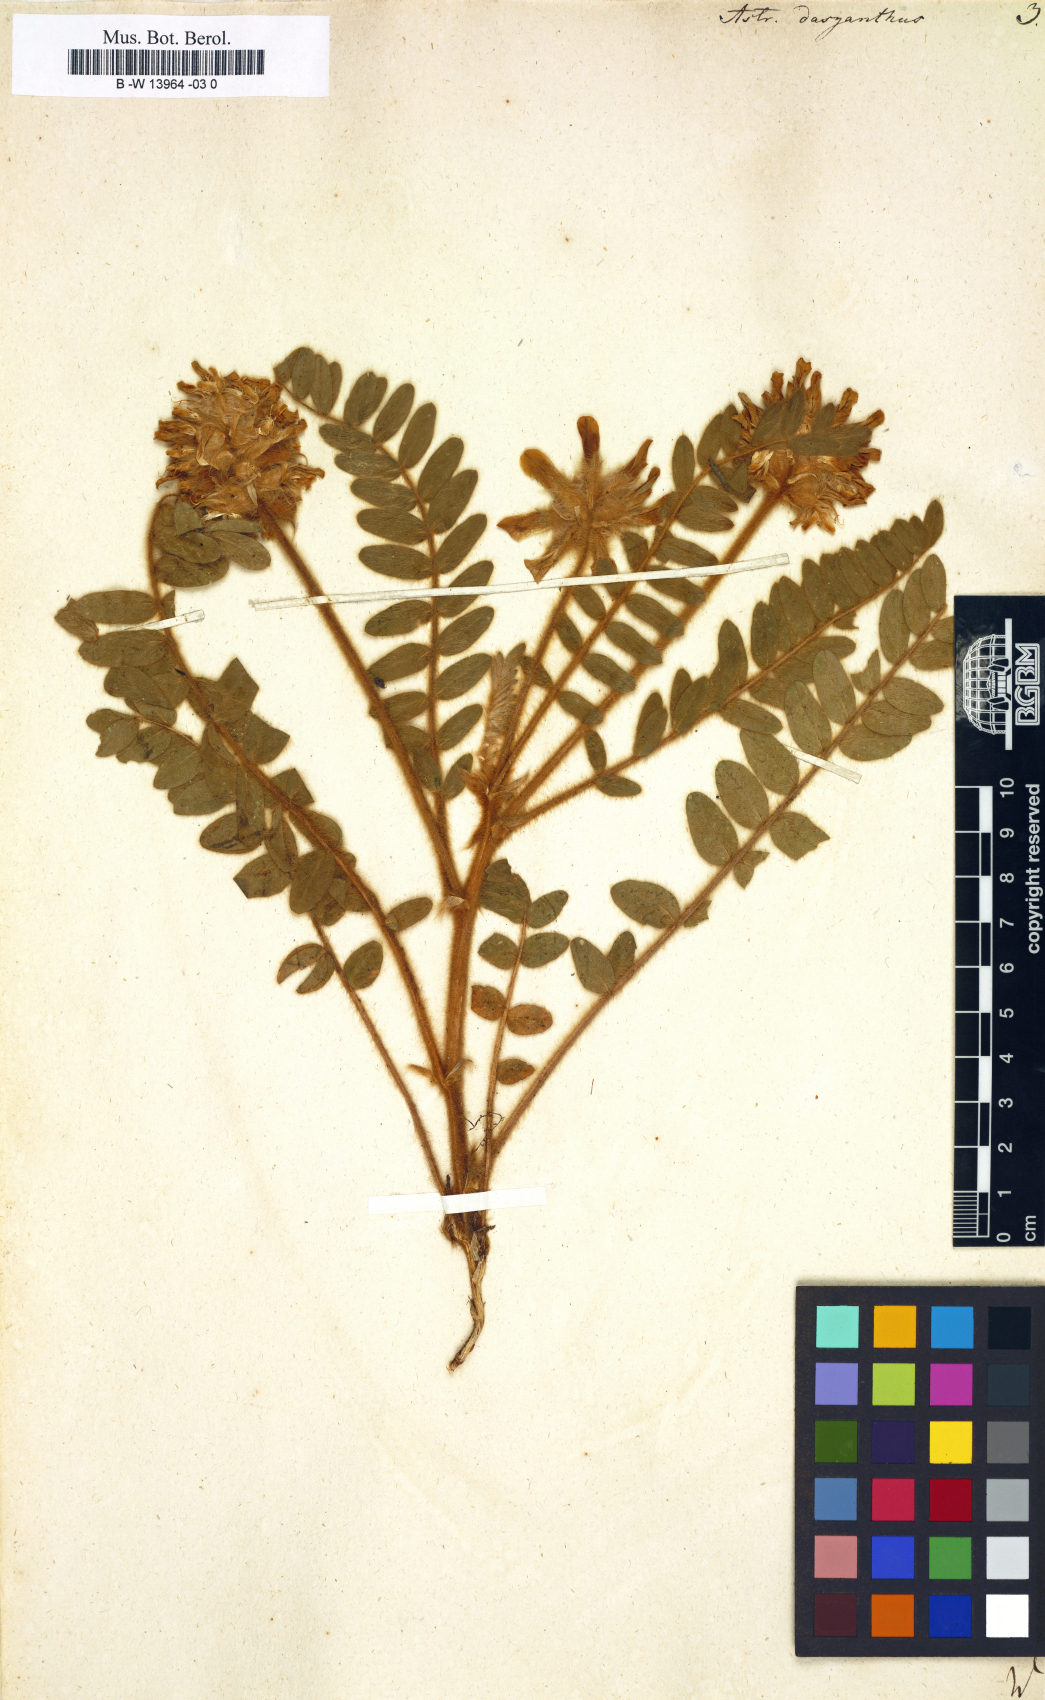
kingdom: Plantae
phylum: Tracheophyta
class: Magnoliopsida
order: Fabales
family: Fabaceae
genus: Astragalus
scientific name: Astragalus dasyanthus
